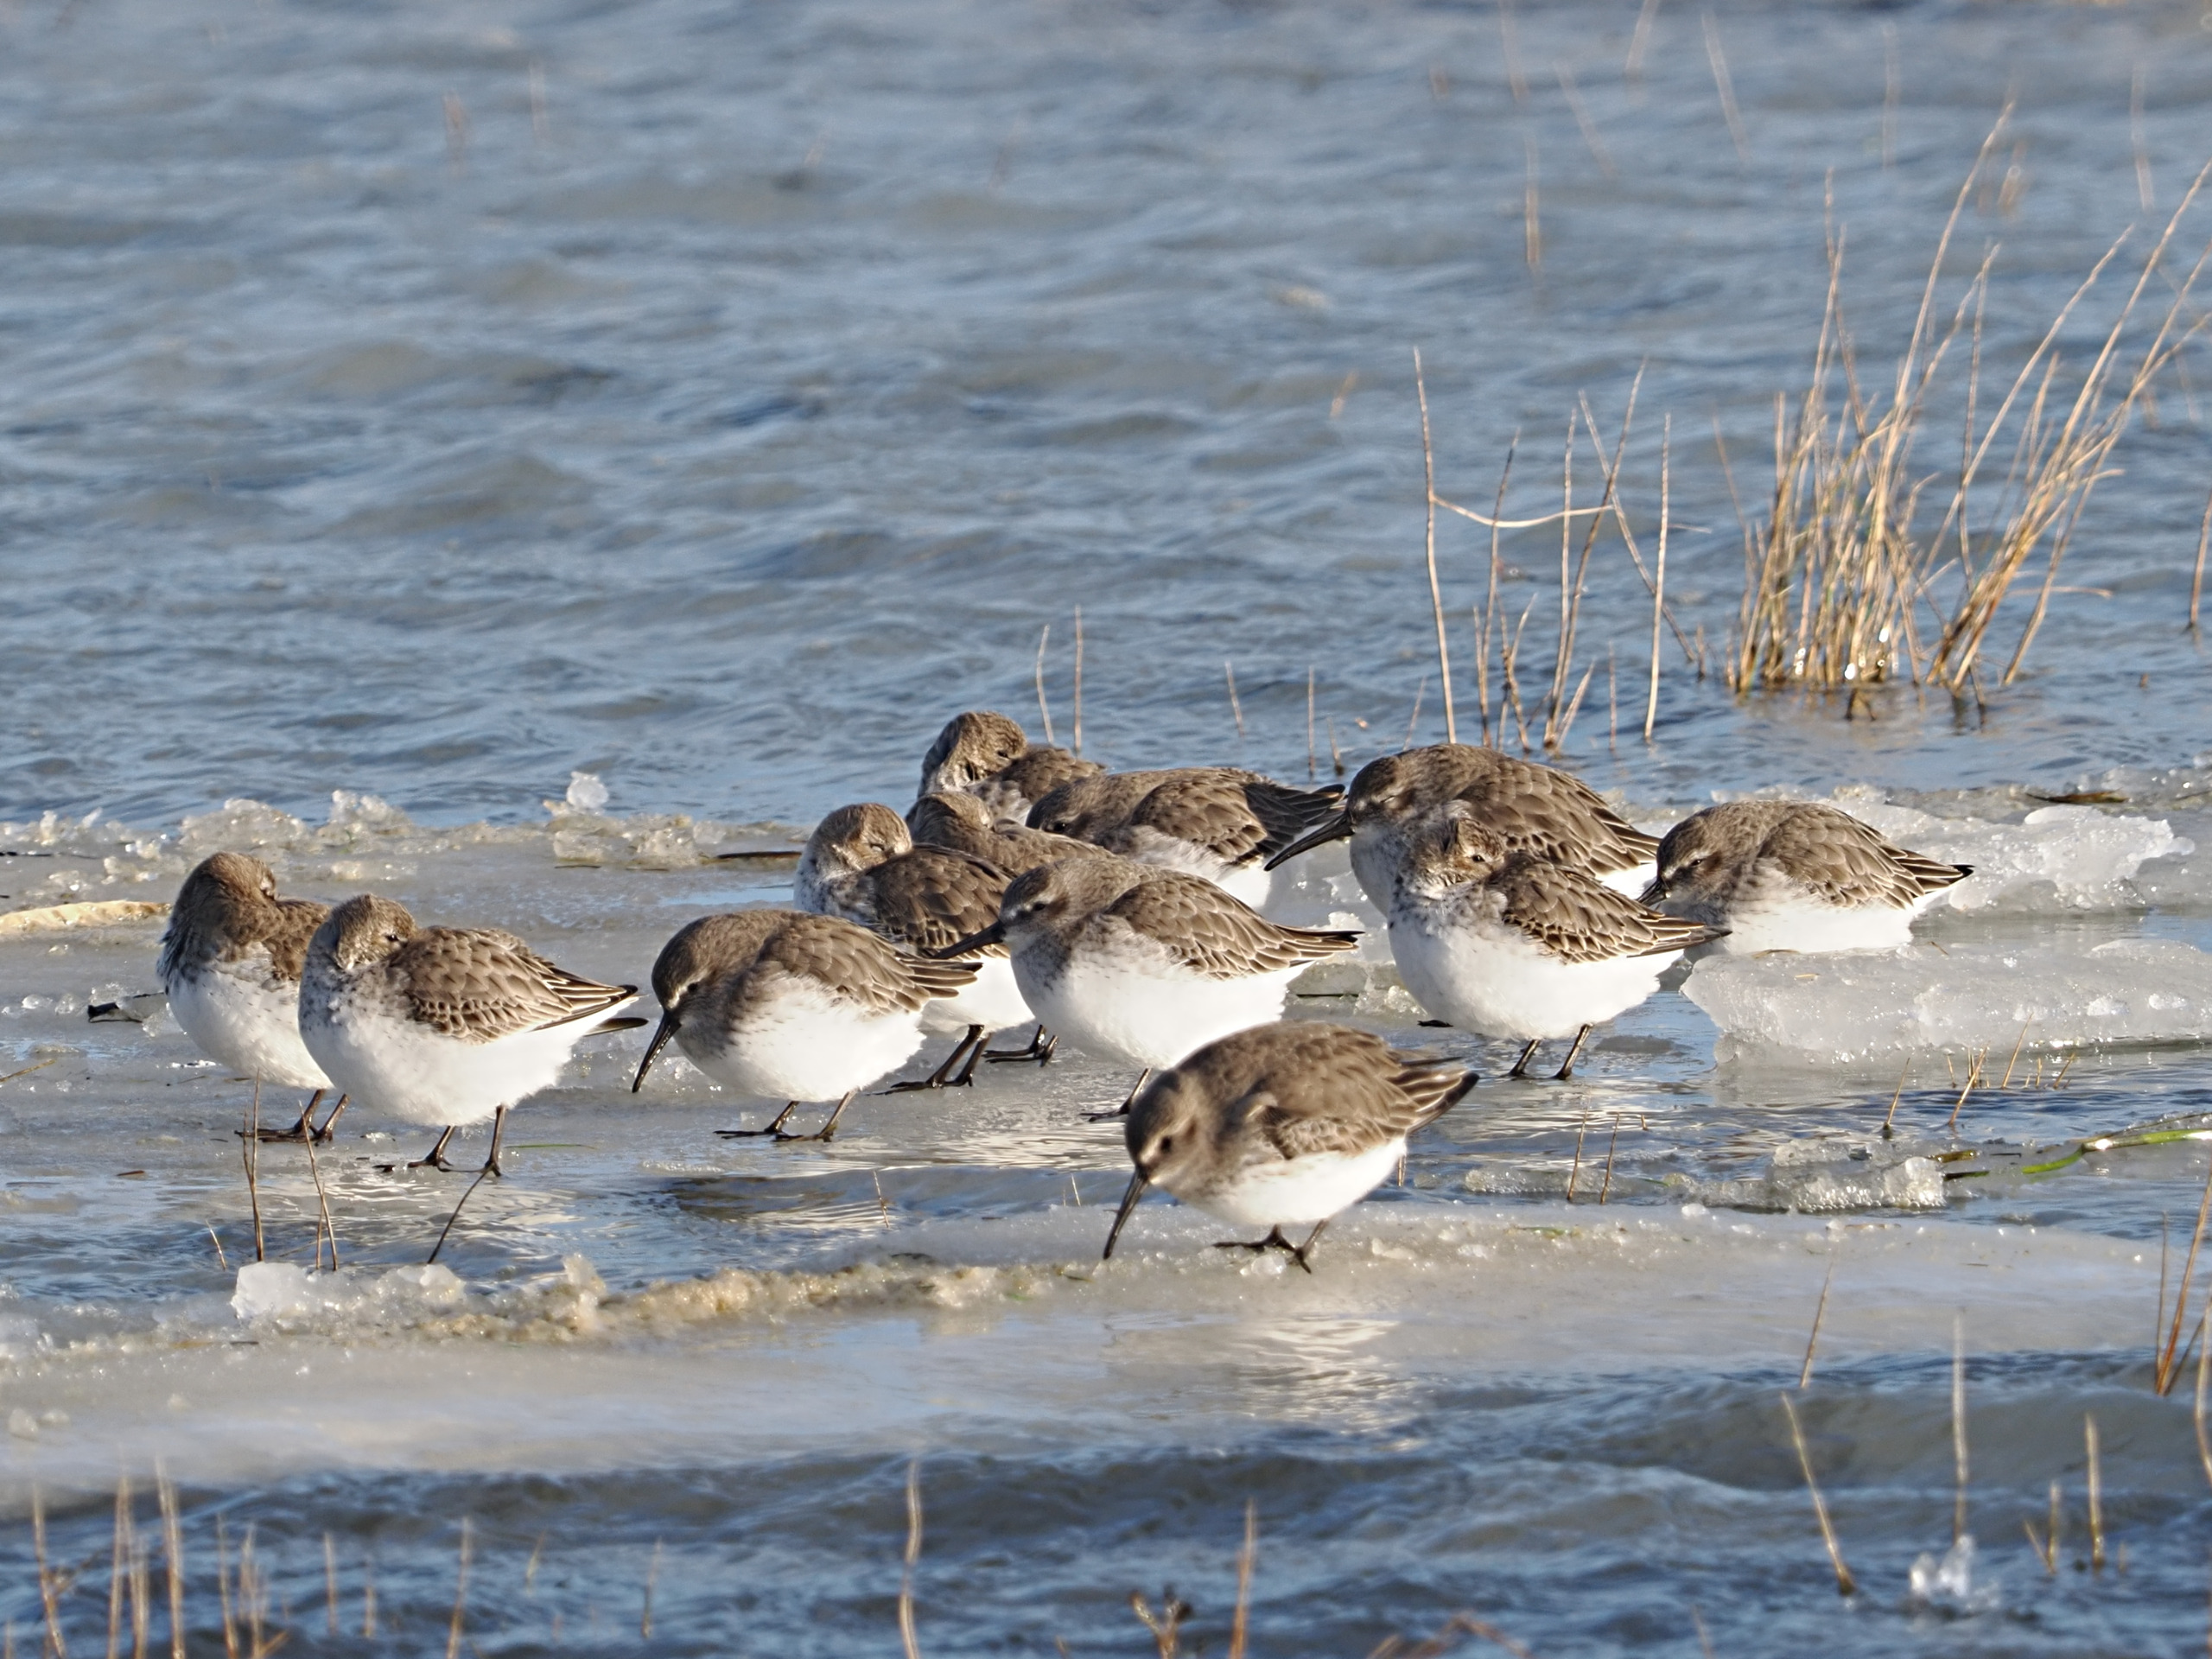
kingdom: Animalia
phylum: Chordata
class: Aves
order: Charadriiformes
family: Scolopacidae
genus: Calidris
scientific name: Calidris alpina
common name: Almindelig ryle
